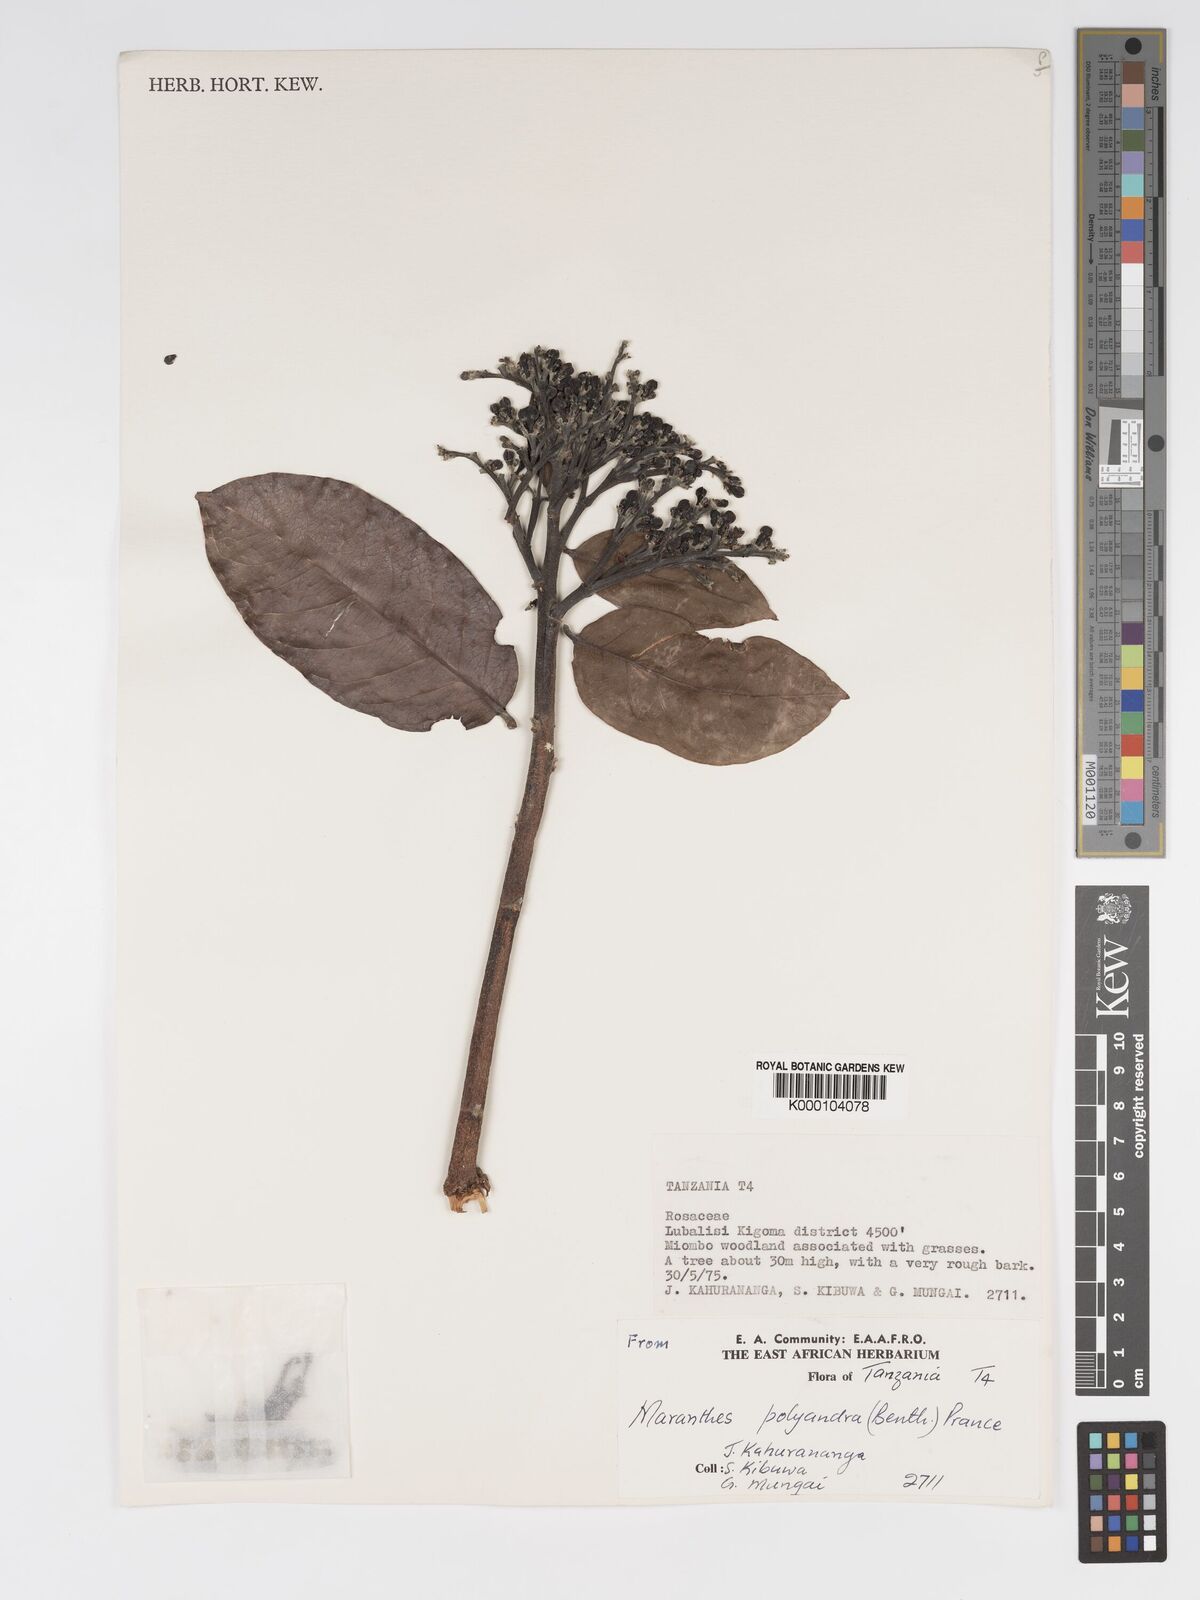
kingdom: Plantae
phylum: Tracheophyta
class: Magnoliopsida
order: Malpighiales
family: Chrysobalanaceae
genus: Maranthes
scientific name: Maranthes floribunda
